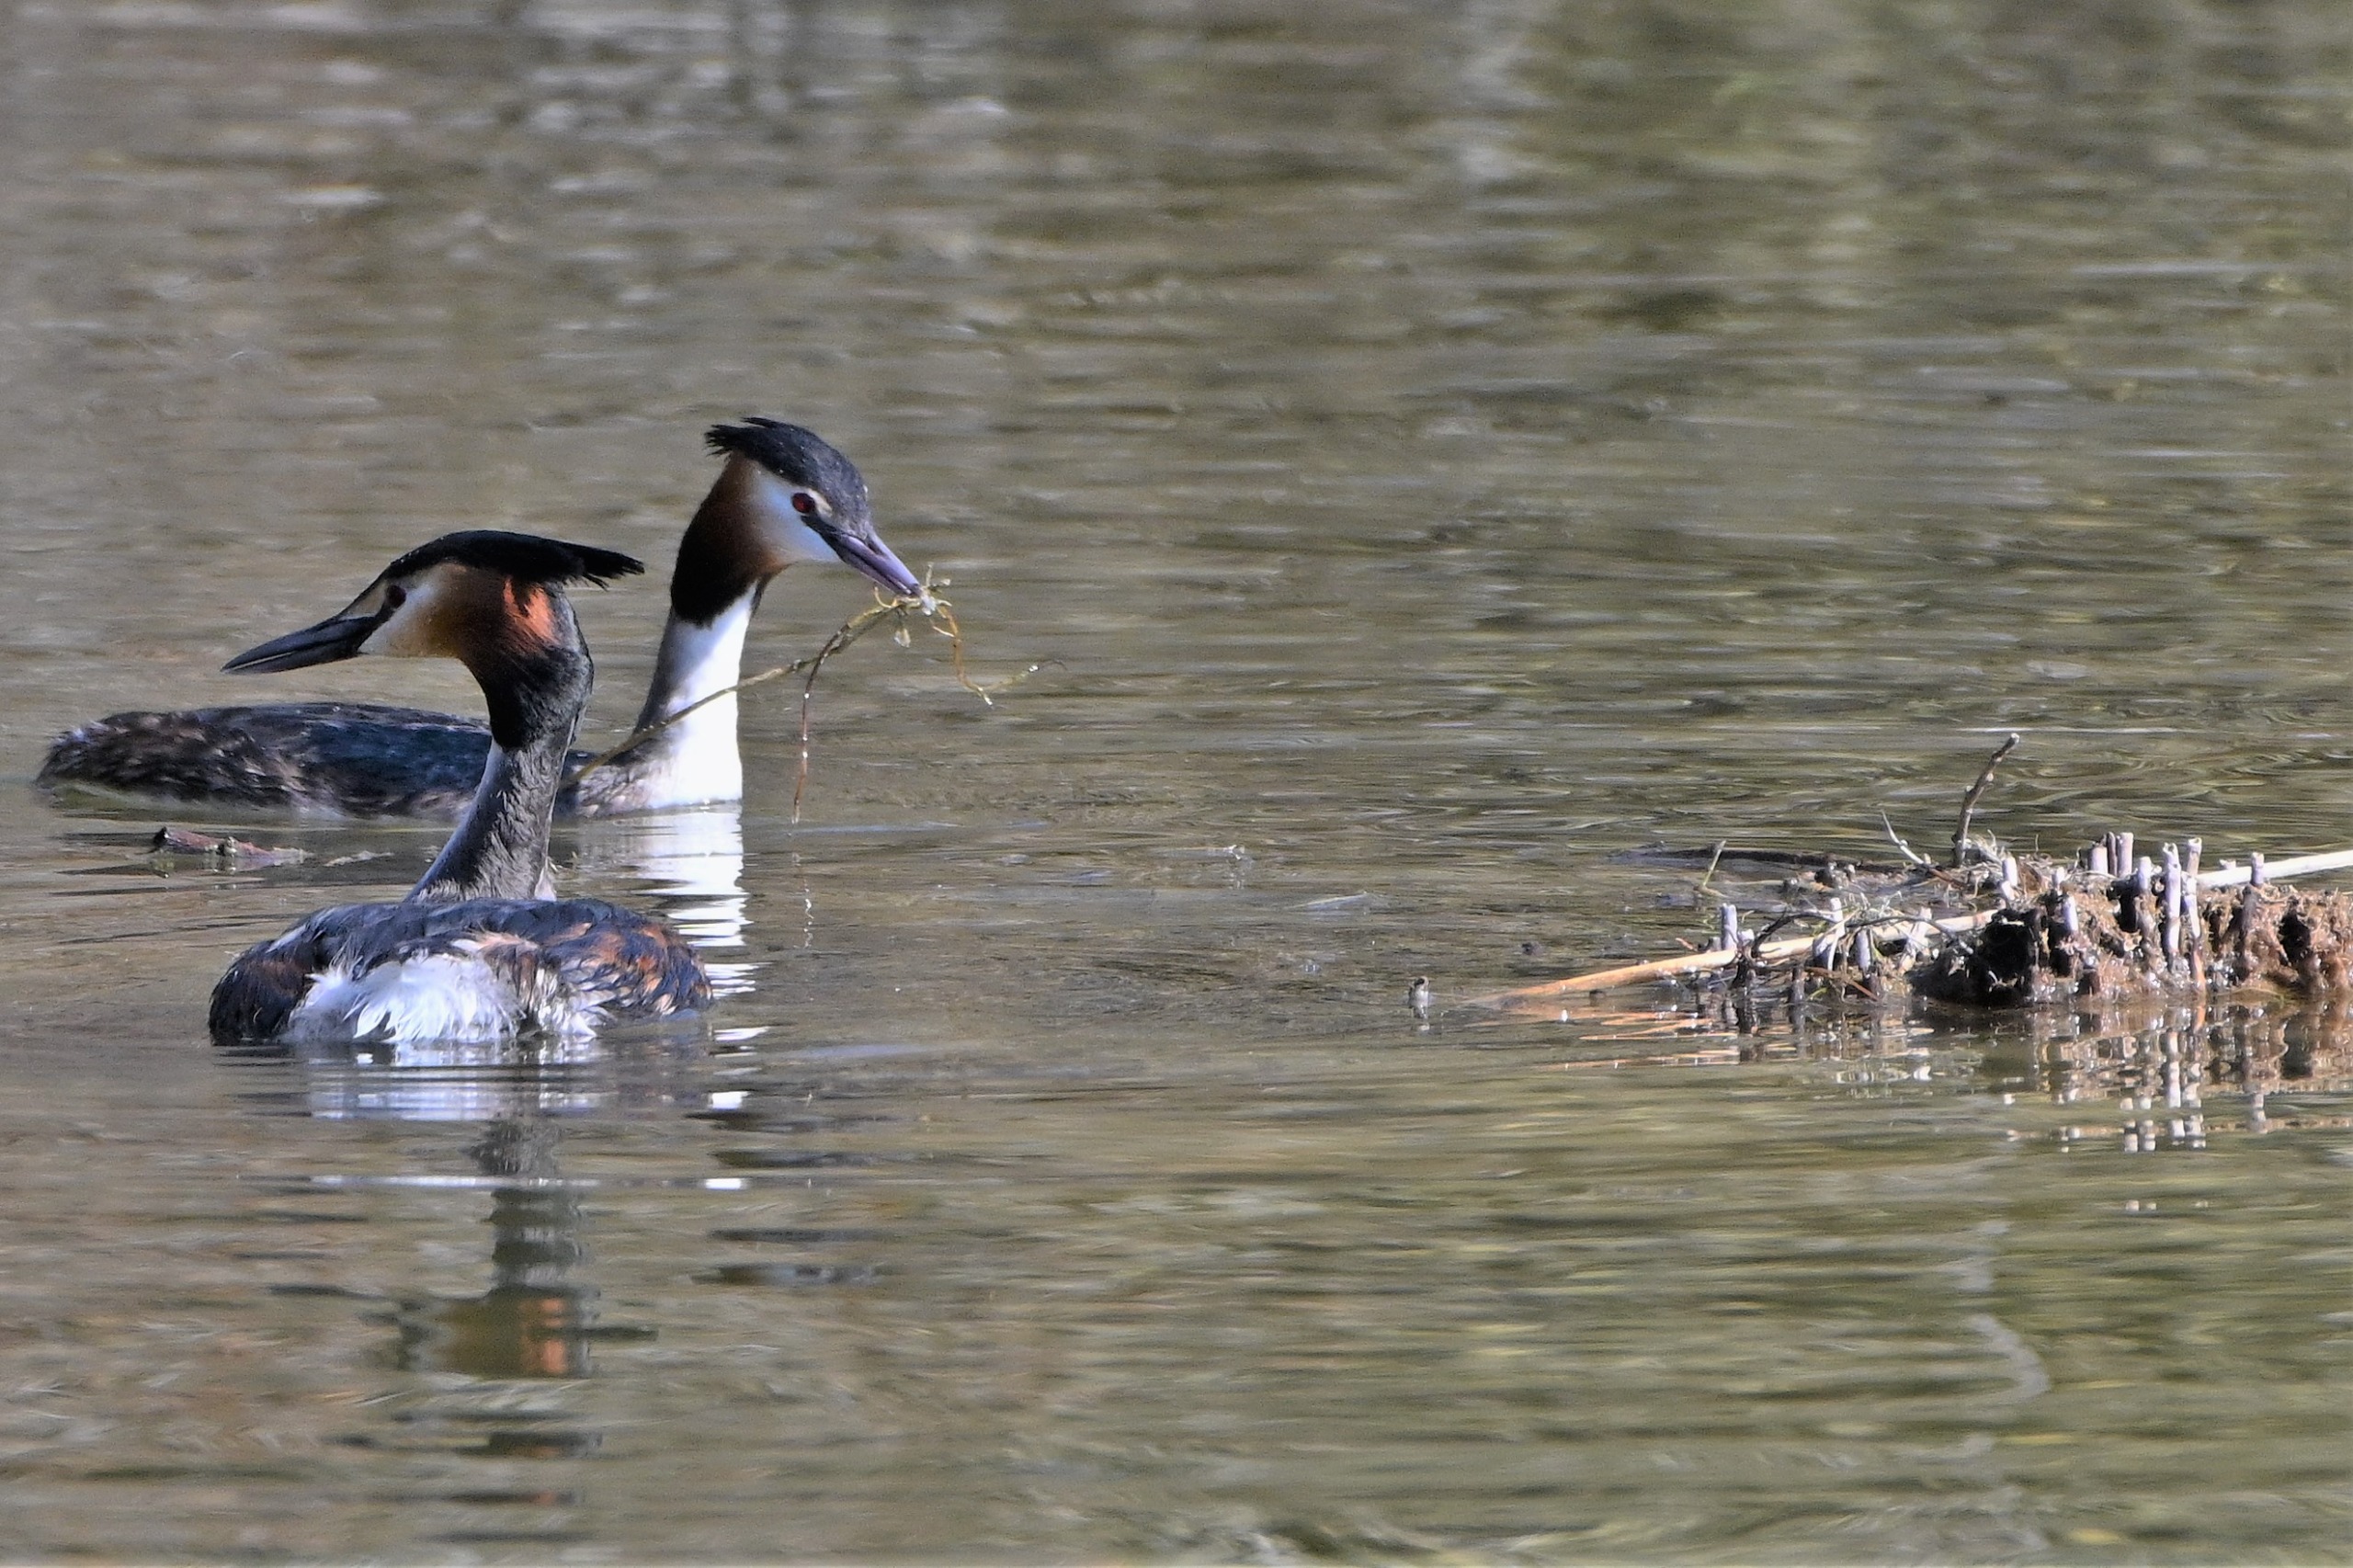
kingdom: Animalia
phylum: Chordata
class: Aves
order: Podicipediformes
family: Podicipedidae
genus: Podiceps
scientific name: Podiceps cristatus
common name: Toppet lappedykker
